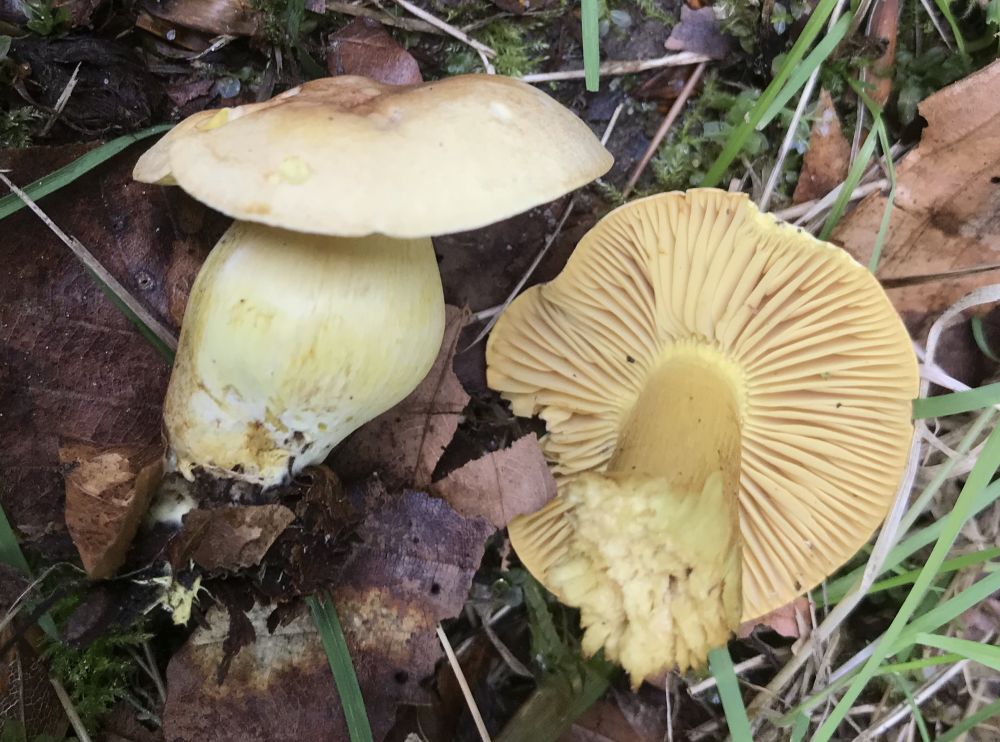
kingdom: Fungi
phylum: Basidiomycota
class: Agaricomycetes
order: Agaricales
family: Tricholomataceae
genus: Tricholoma
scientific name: Tricholoma sulphureum
